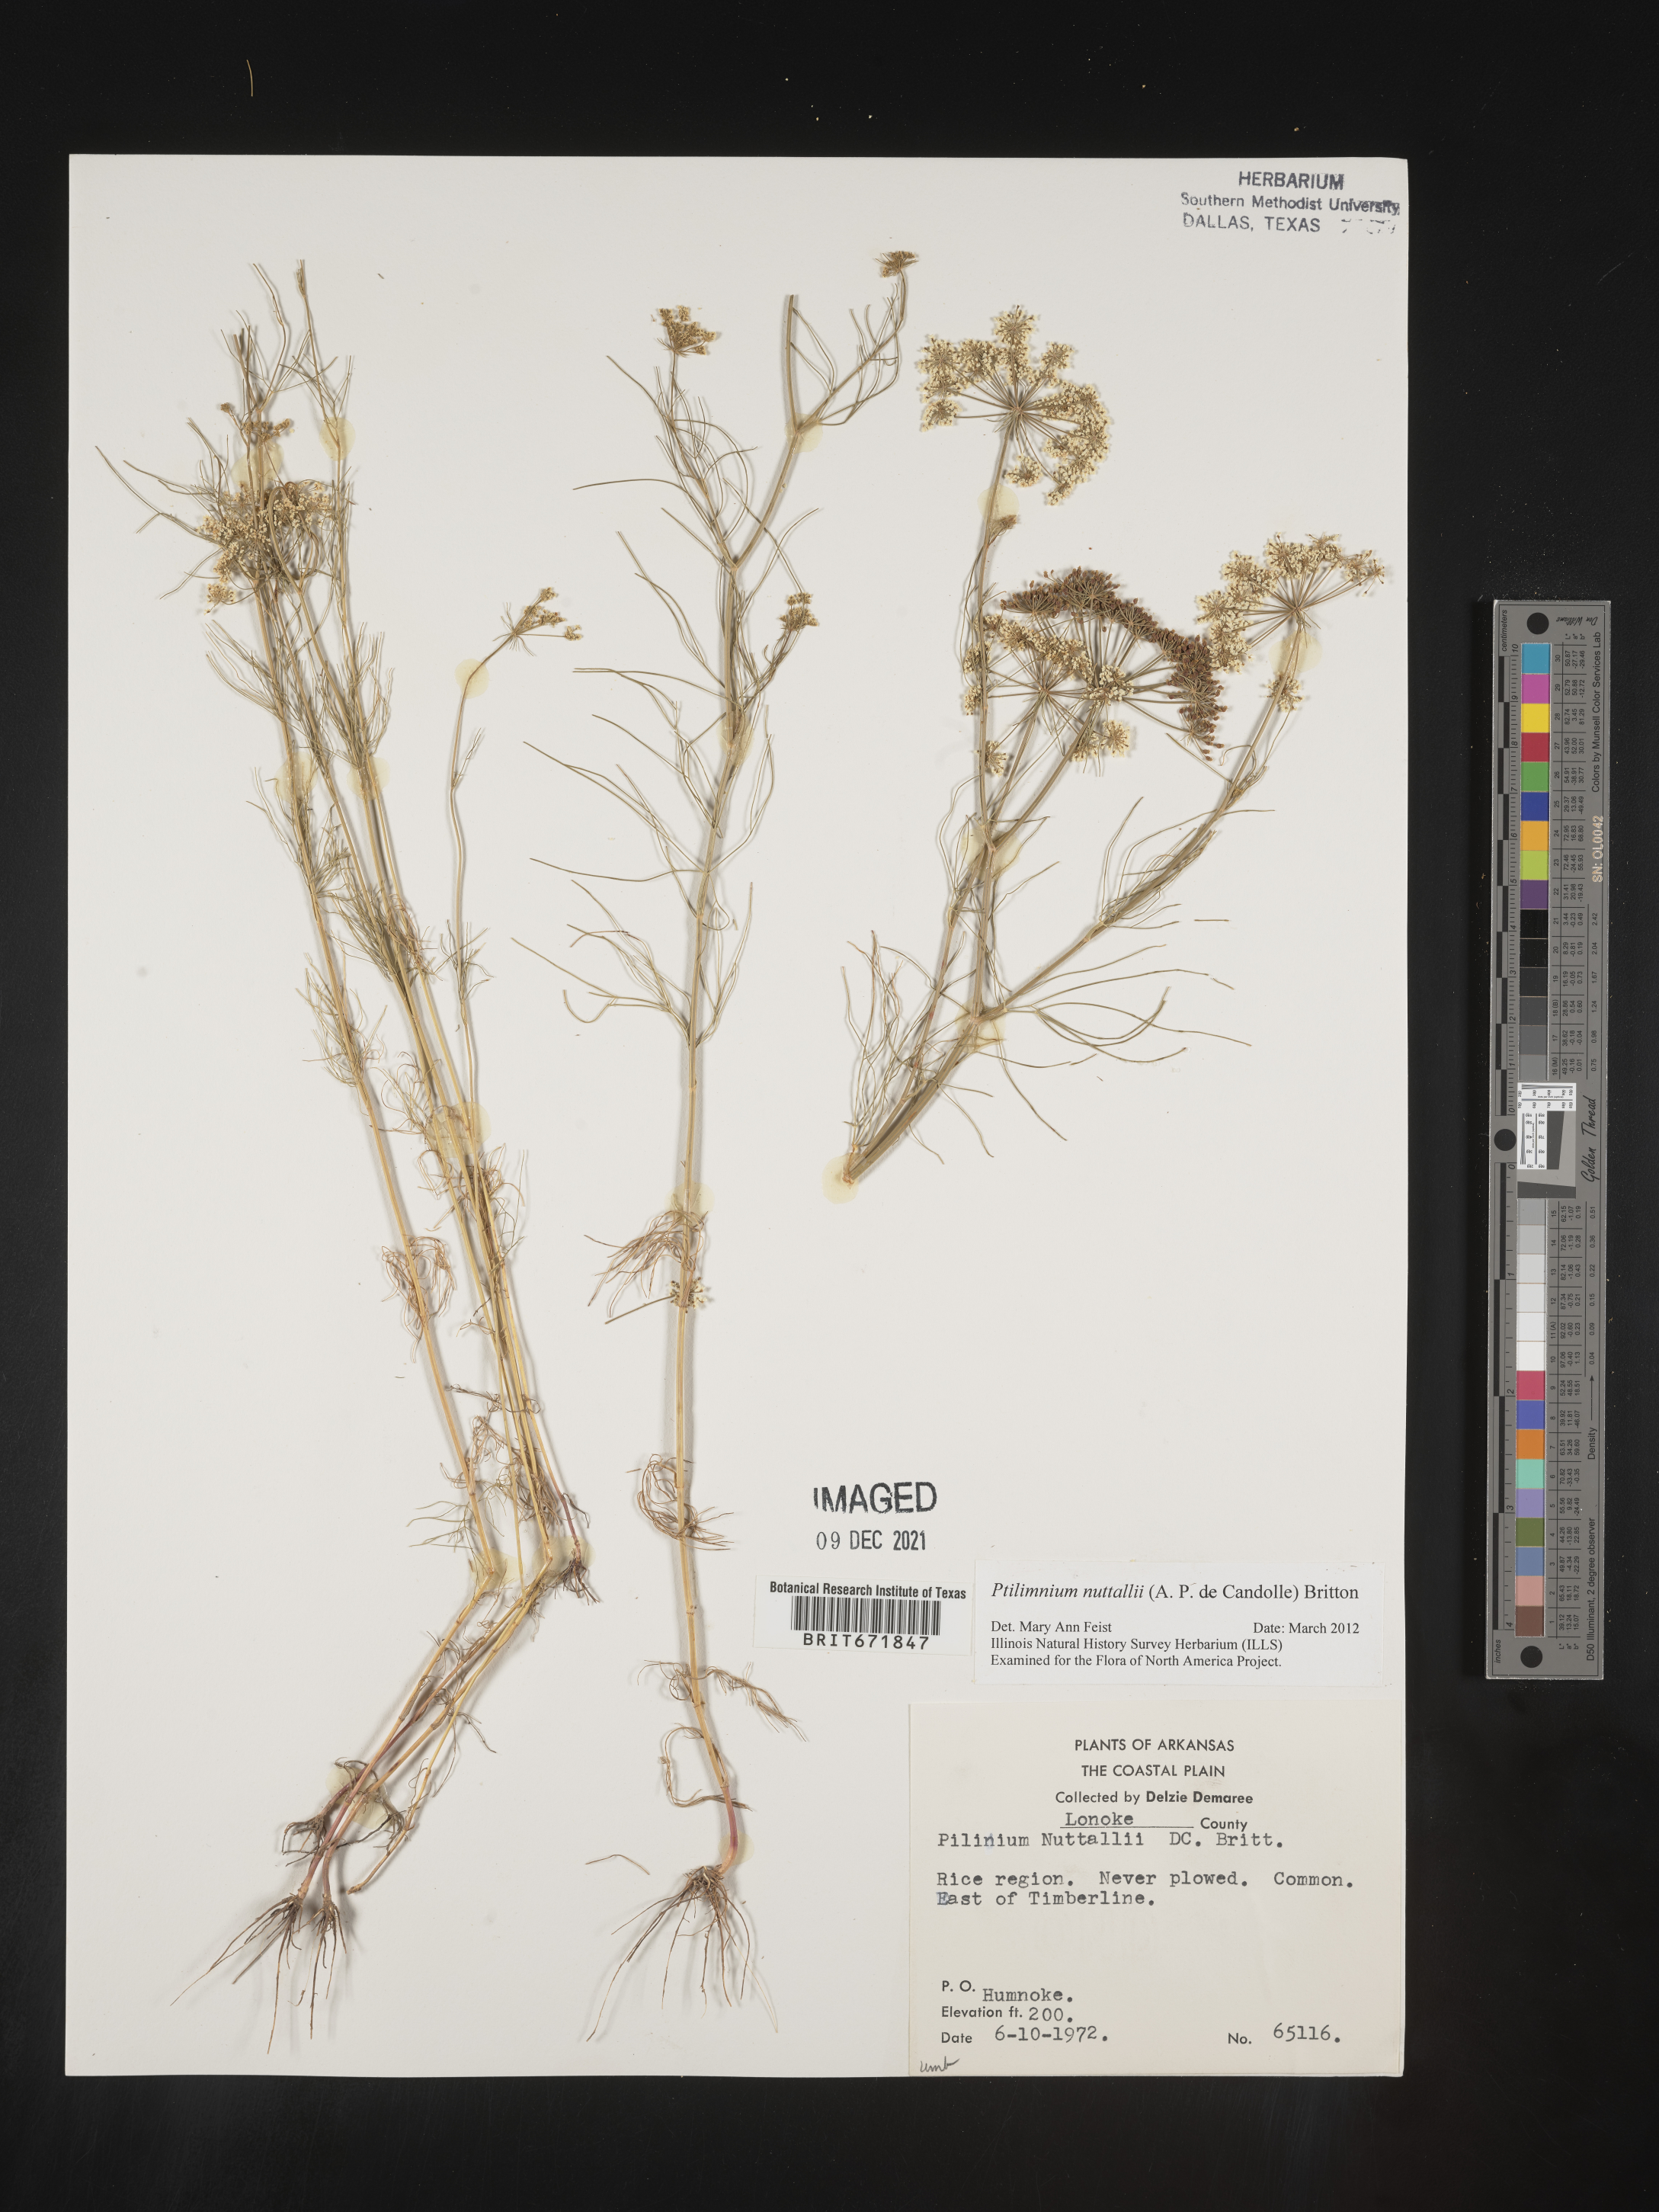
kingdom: Plantae
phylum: Tracheophyta
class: Magnoliopsida
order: Apiales
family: Apiaceae
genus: Ptilimnium
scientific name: Ptilimnium nuttallii
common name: Ozark bishop's-weed
